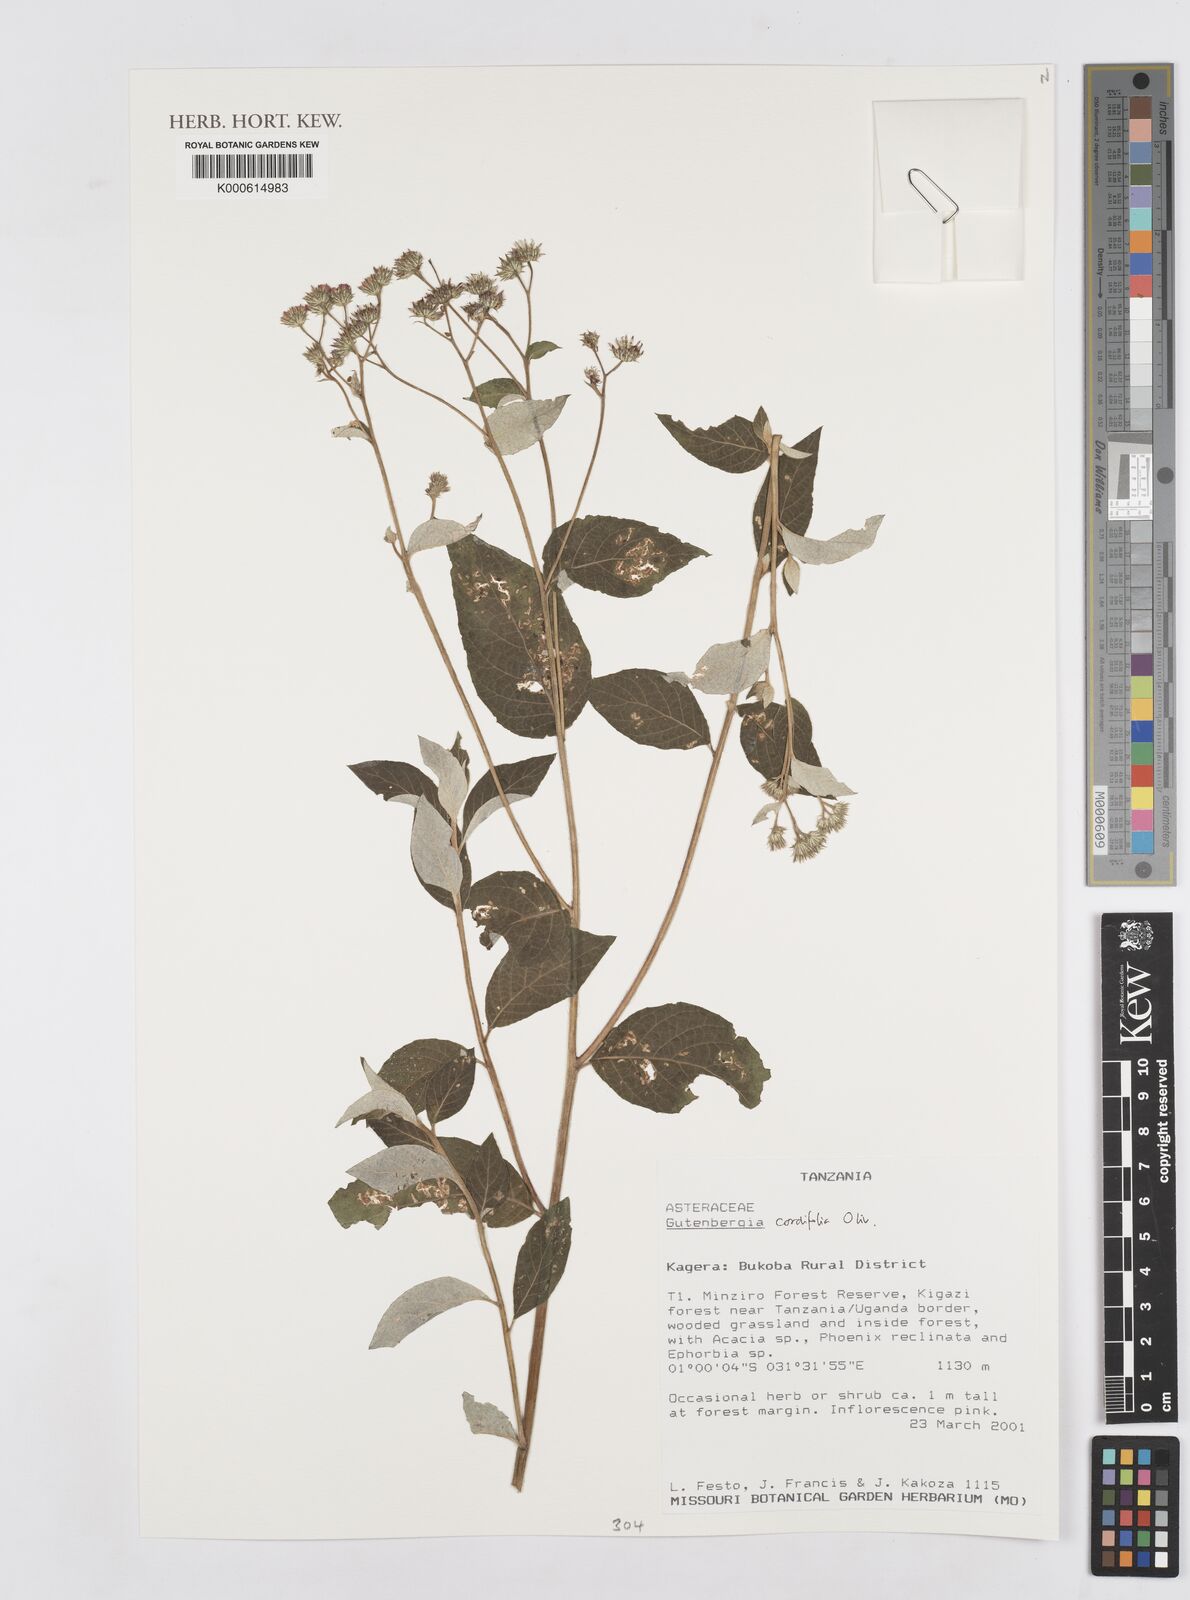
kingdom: Plantae
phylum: Tracheophyta
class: Magnoliopsida
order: Asterales
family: Asteraceae
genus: Gutenbergia
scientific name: Gutenbergia cordifolia
